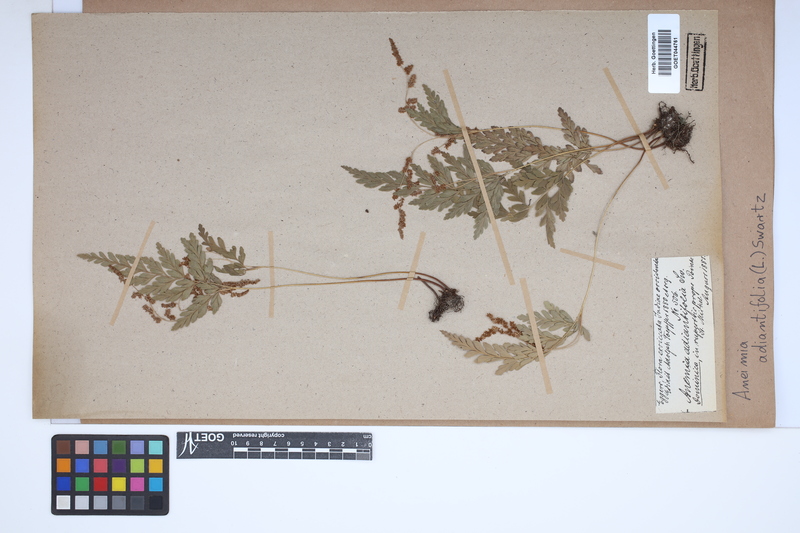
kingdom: Plantae
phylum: Tracheophyta
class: Polypodiopsida
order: Schizaeales
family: Anemiaceae
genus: Anemia
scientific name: Anemia adiantifolia
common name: Pine fern
